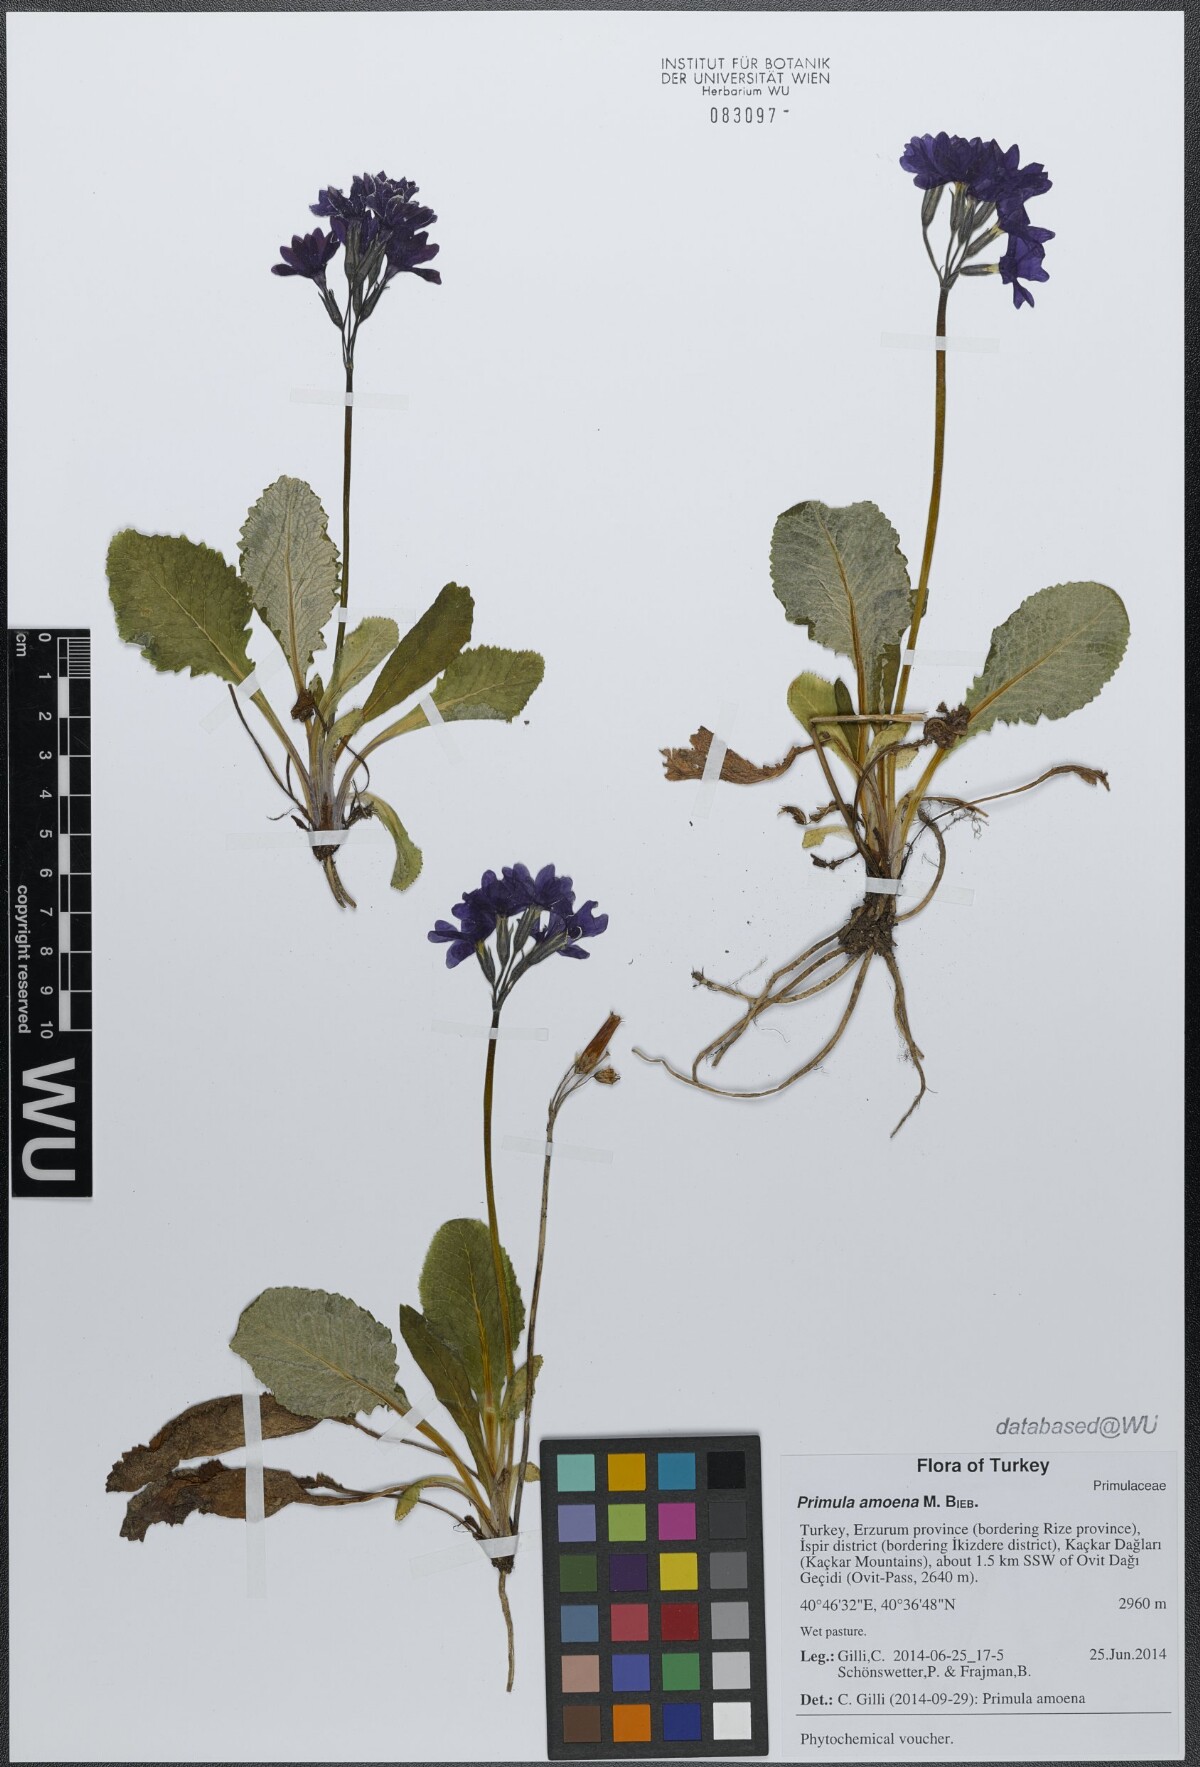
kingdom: Plantae
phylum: Tracheophyta
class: Magnoliopsida
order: Ericales
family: Primulaceae
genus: Primula
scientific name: Primula amoena
